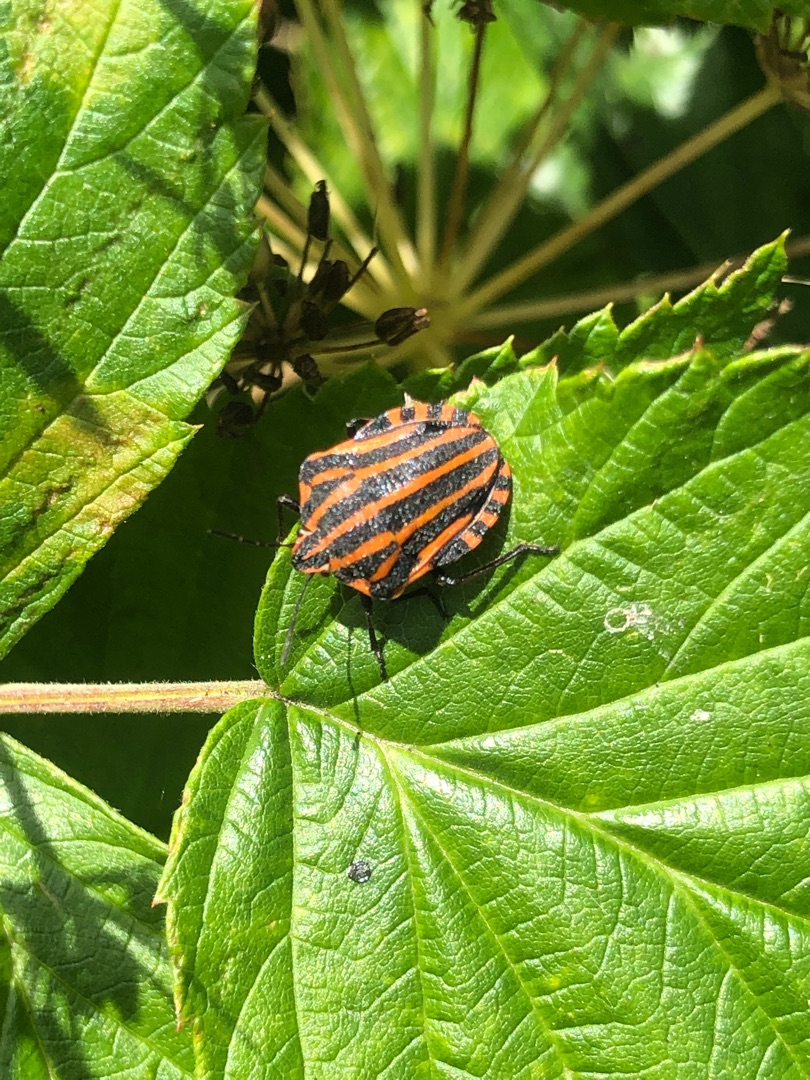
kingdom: Animalia
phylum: Arthropoda
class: Insecta
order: Hemiptera
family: Pentatomidae
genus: Graphosoma
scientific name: Graphosoma italicum
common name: Stribetæge
